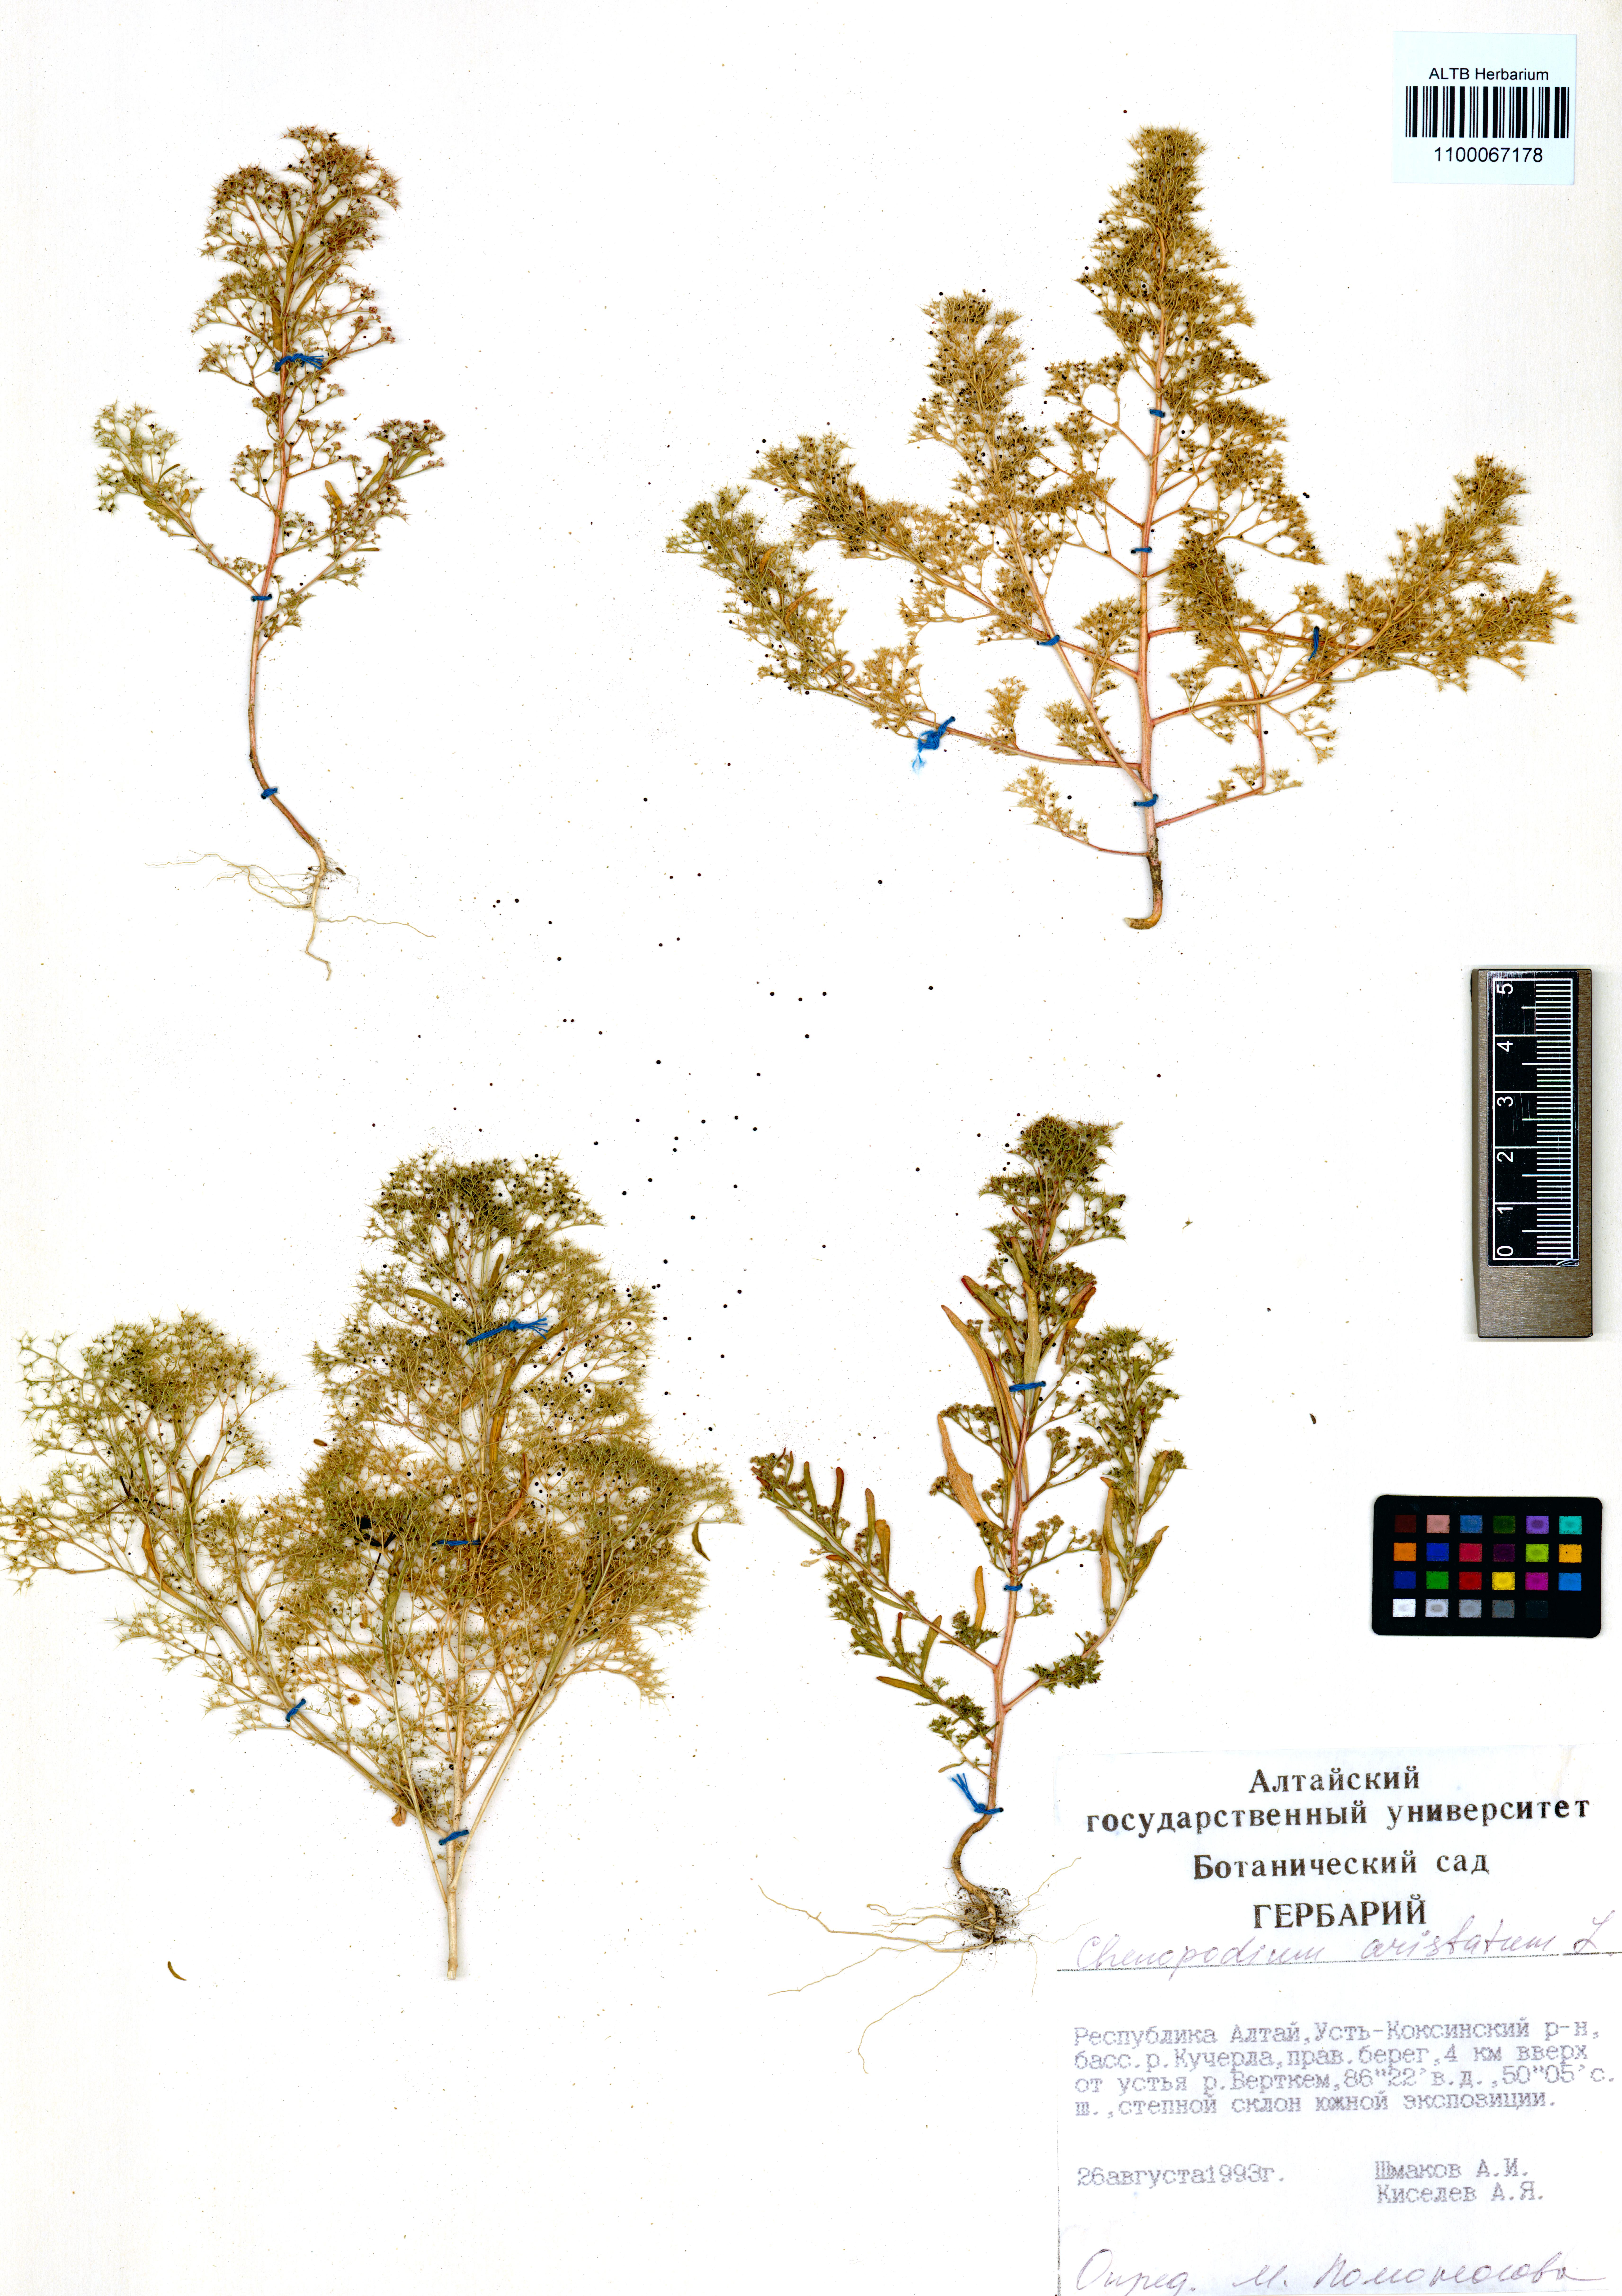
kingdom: Plantae
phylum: Tracheophyta
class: Magnoliopsida
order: Caryophyllales
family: Amaranthaceae
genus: Teloxys
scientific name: Teloxys aristata
